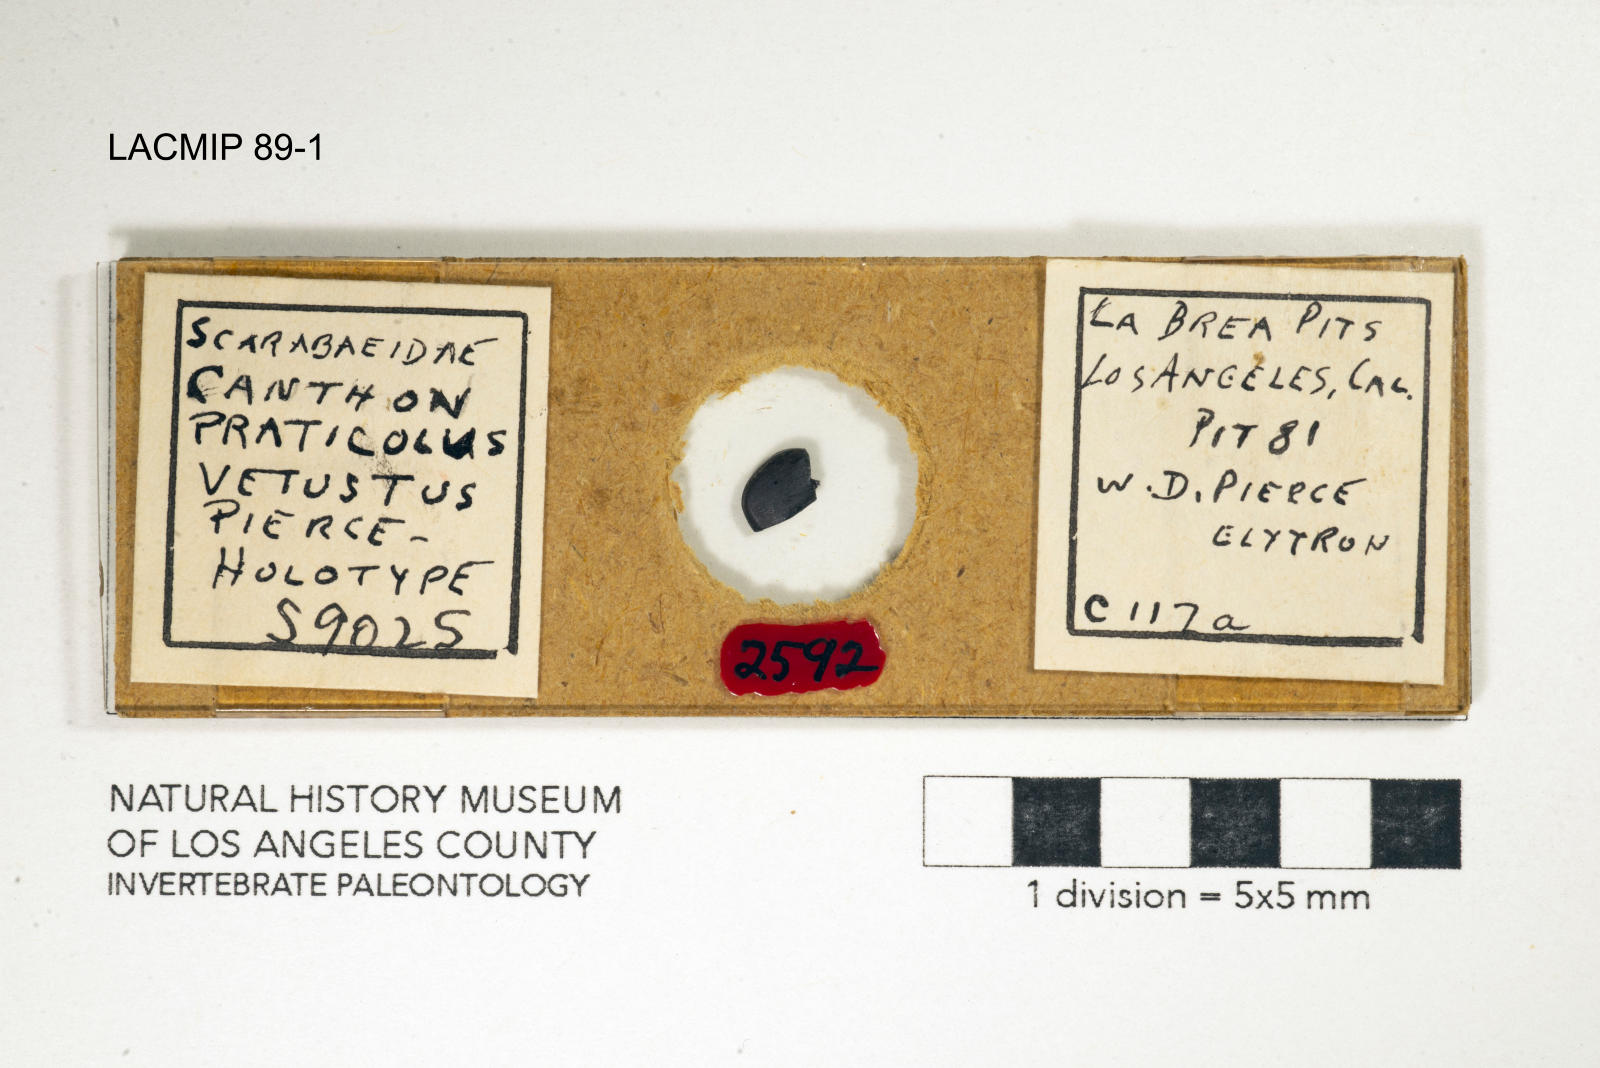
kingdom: Animalia
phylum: Arthropoda
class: Insecta
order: Coleoptera
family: Scarabaeidae
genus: Canthon
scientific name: Canthon praticola
